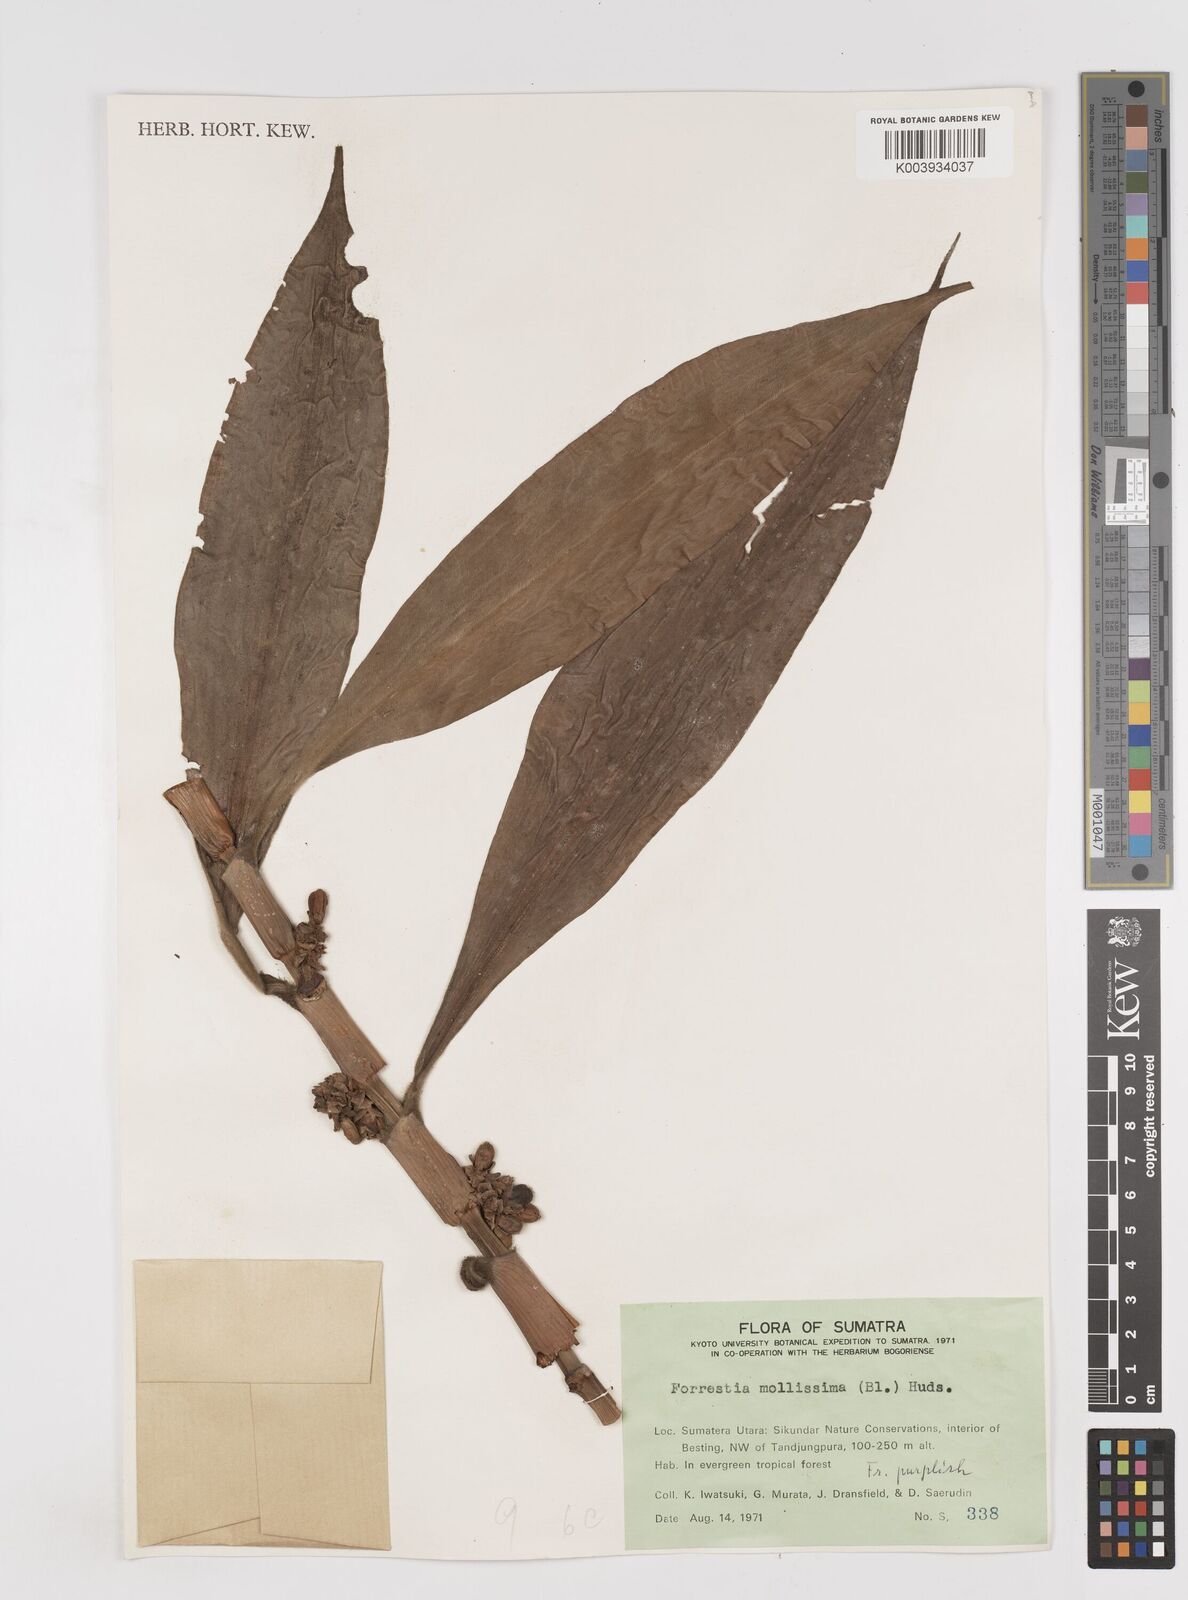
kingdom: Plantae
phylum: Tracheophyta
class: Liliopsida
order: Commelinales
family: Commelinaceae
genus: Amischotolype
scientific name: Amischotolype mollissima
